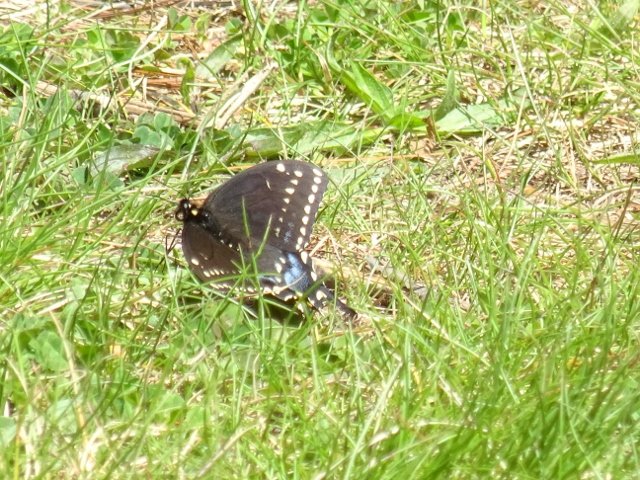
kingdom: Animalia
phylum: Arthropoda
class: Insecta
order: Lepidoptera
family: Papilionidae
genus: Papilio
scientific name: Papilio polyxenes
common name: Black Swallowtail
